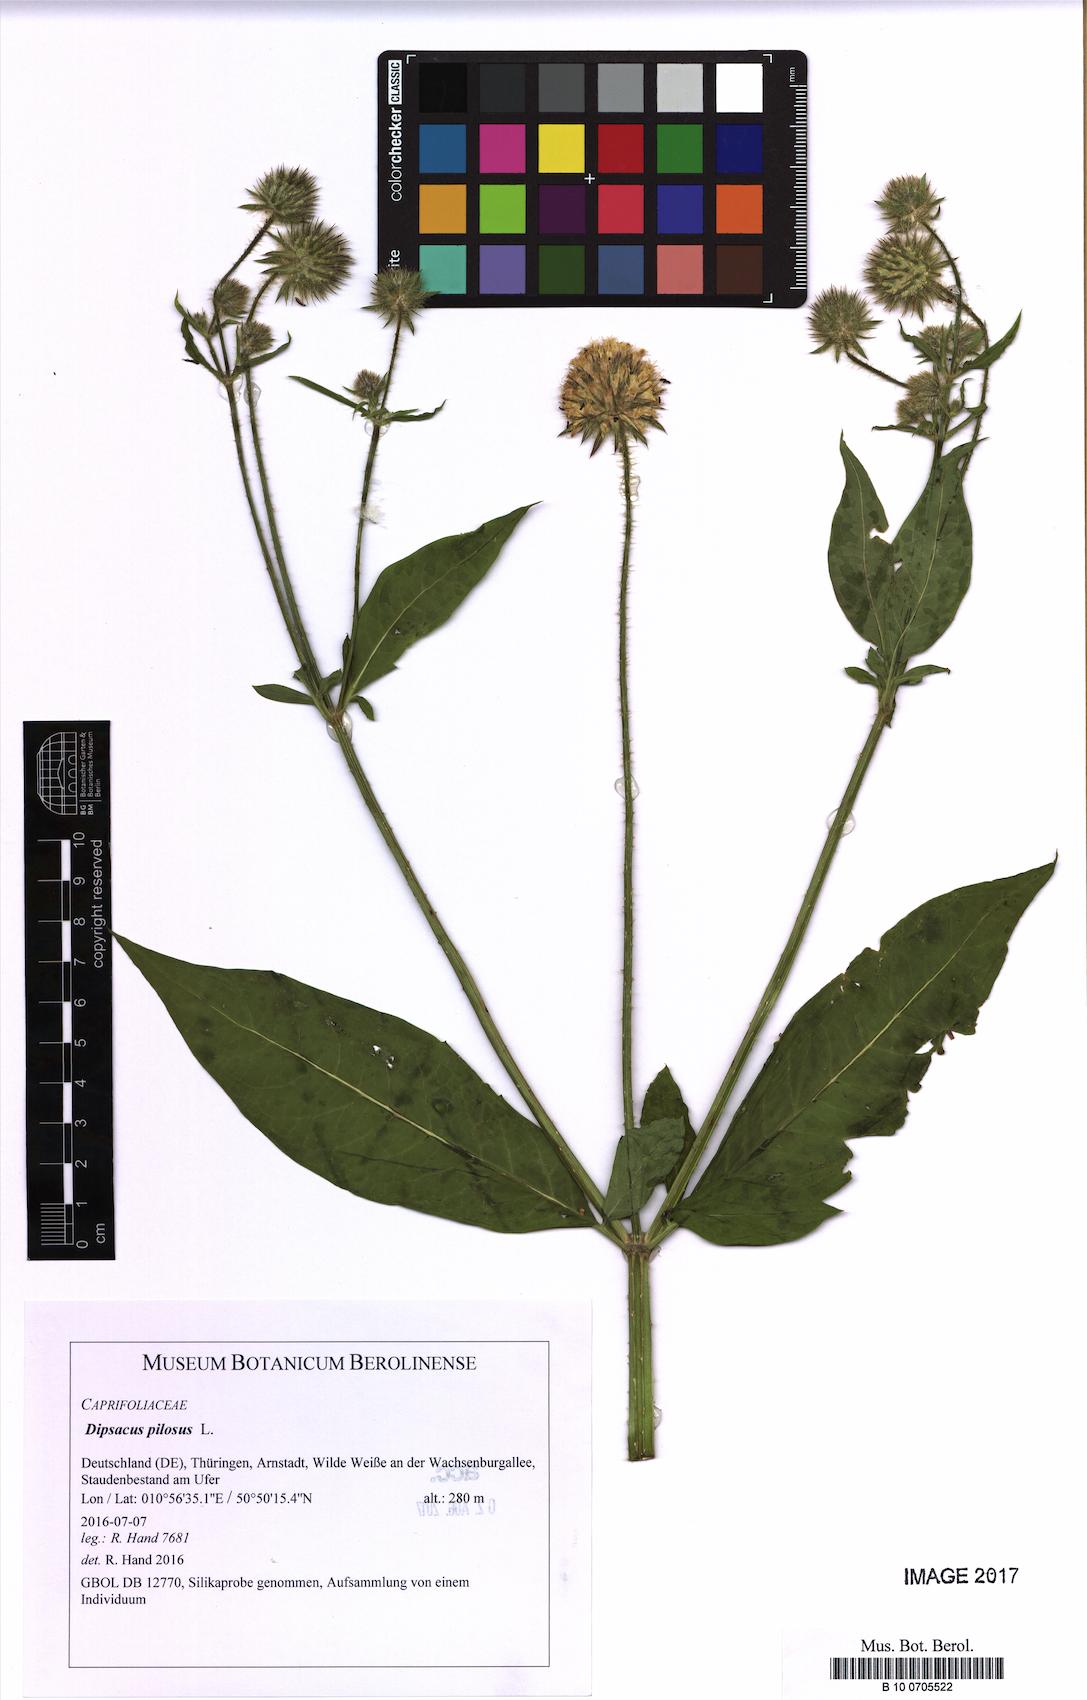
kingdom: Plantae
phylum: Tracheophyta
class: Magnoliopsida
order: Dipsacales
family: Caprifoliaceae
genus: Dipsacus
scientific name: Dipsacus pilosus
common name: Small teasel
